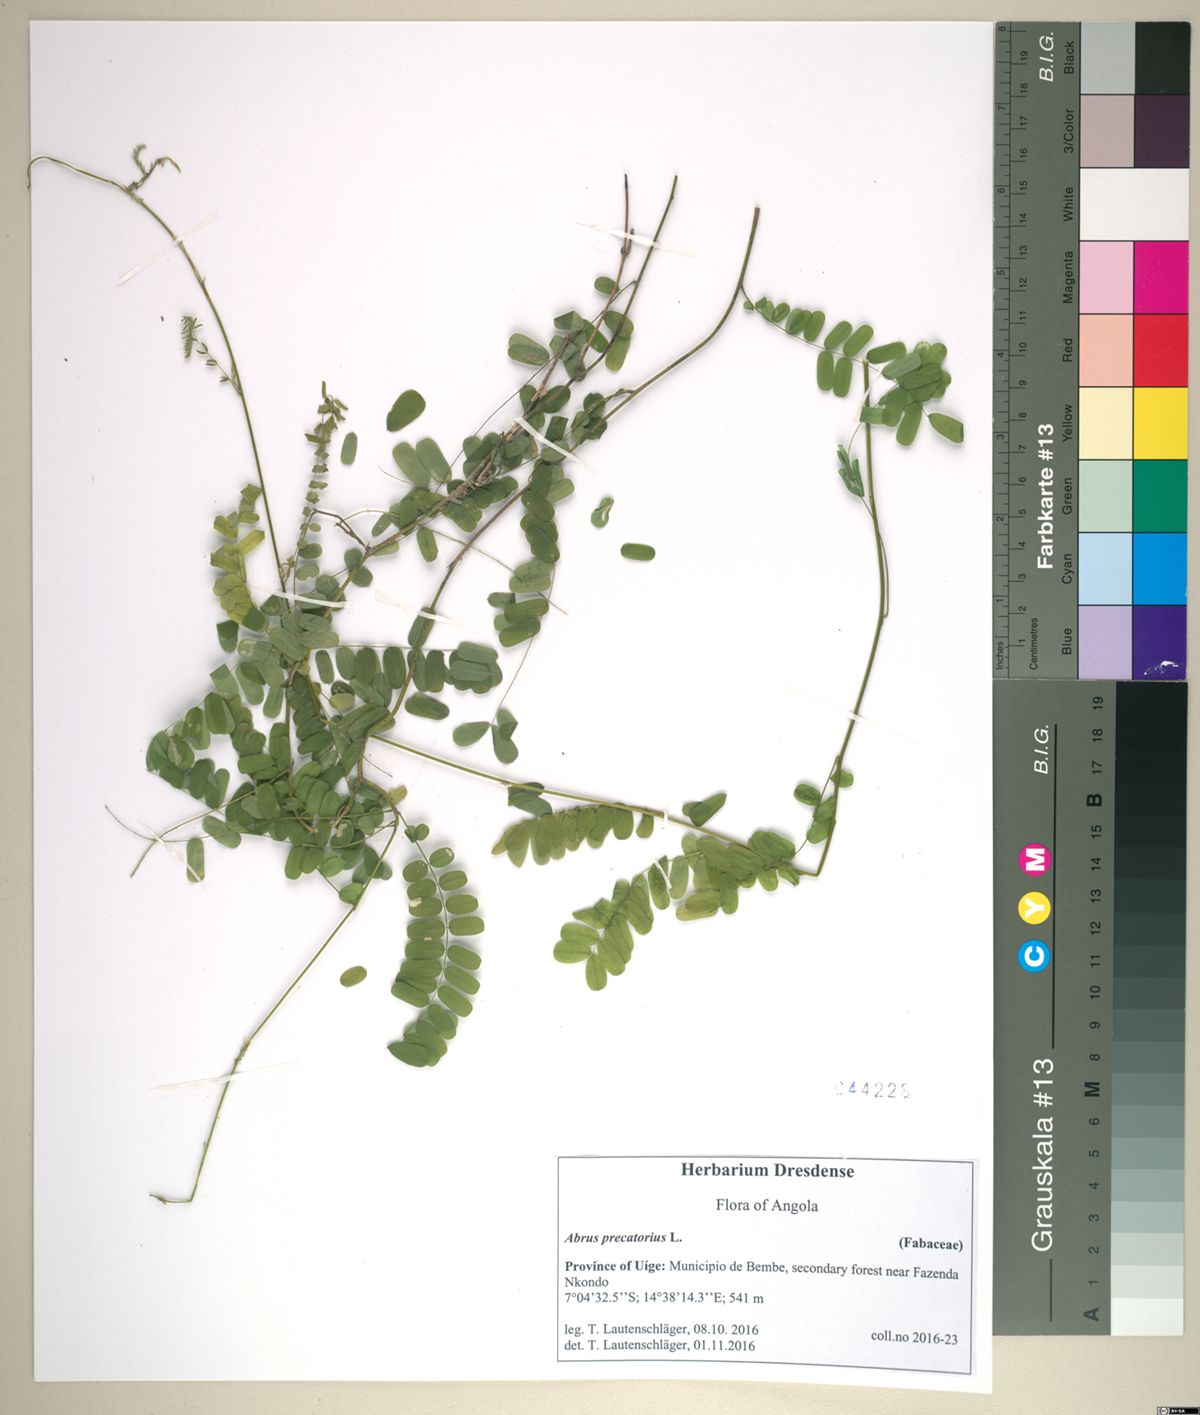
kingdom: Plantae
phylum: Tracheophyta
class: Magnoliopsida
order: Fabales
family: Fabaceae
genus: Abrus
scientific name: Abrus precatorius
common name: Rosarypea
